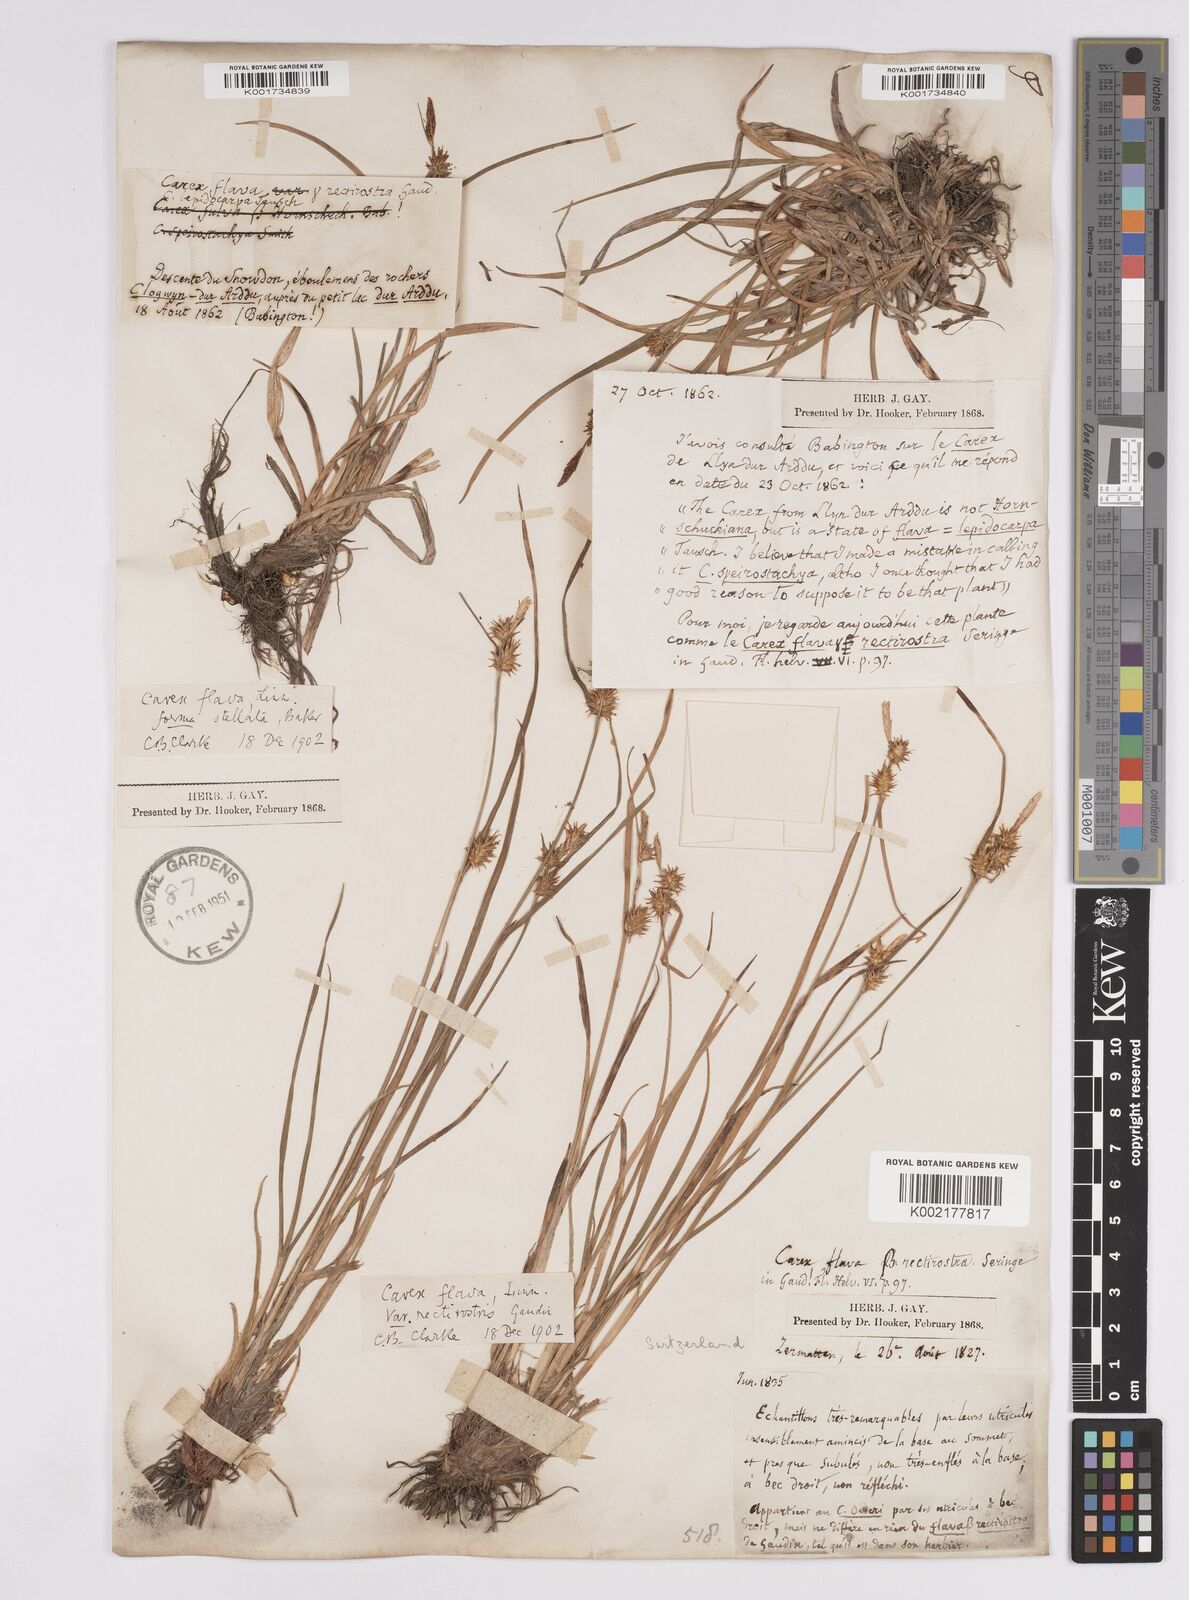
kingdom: Plantae
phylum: Tracheophyta
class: Liliopsida
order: Poales
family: Cyperaceae
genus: Carex
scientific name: Carex flava
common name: Large yellow-sedge
